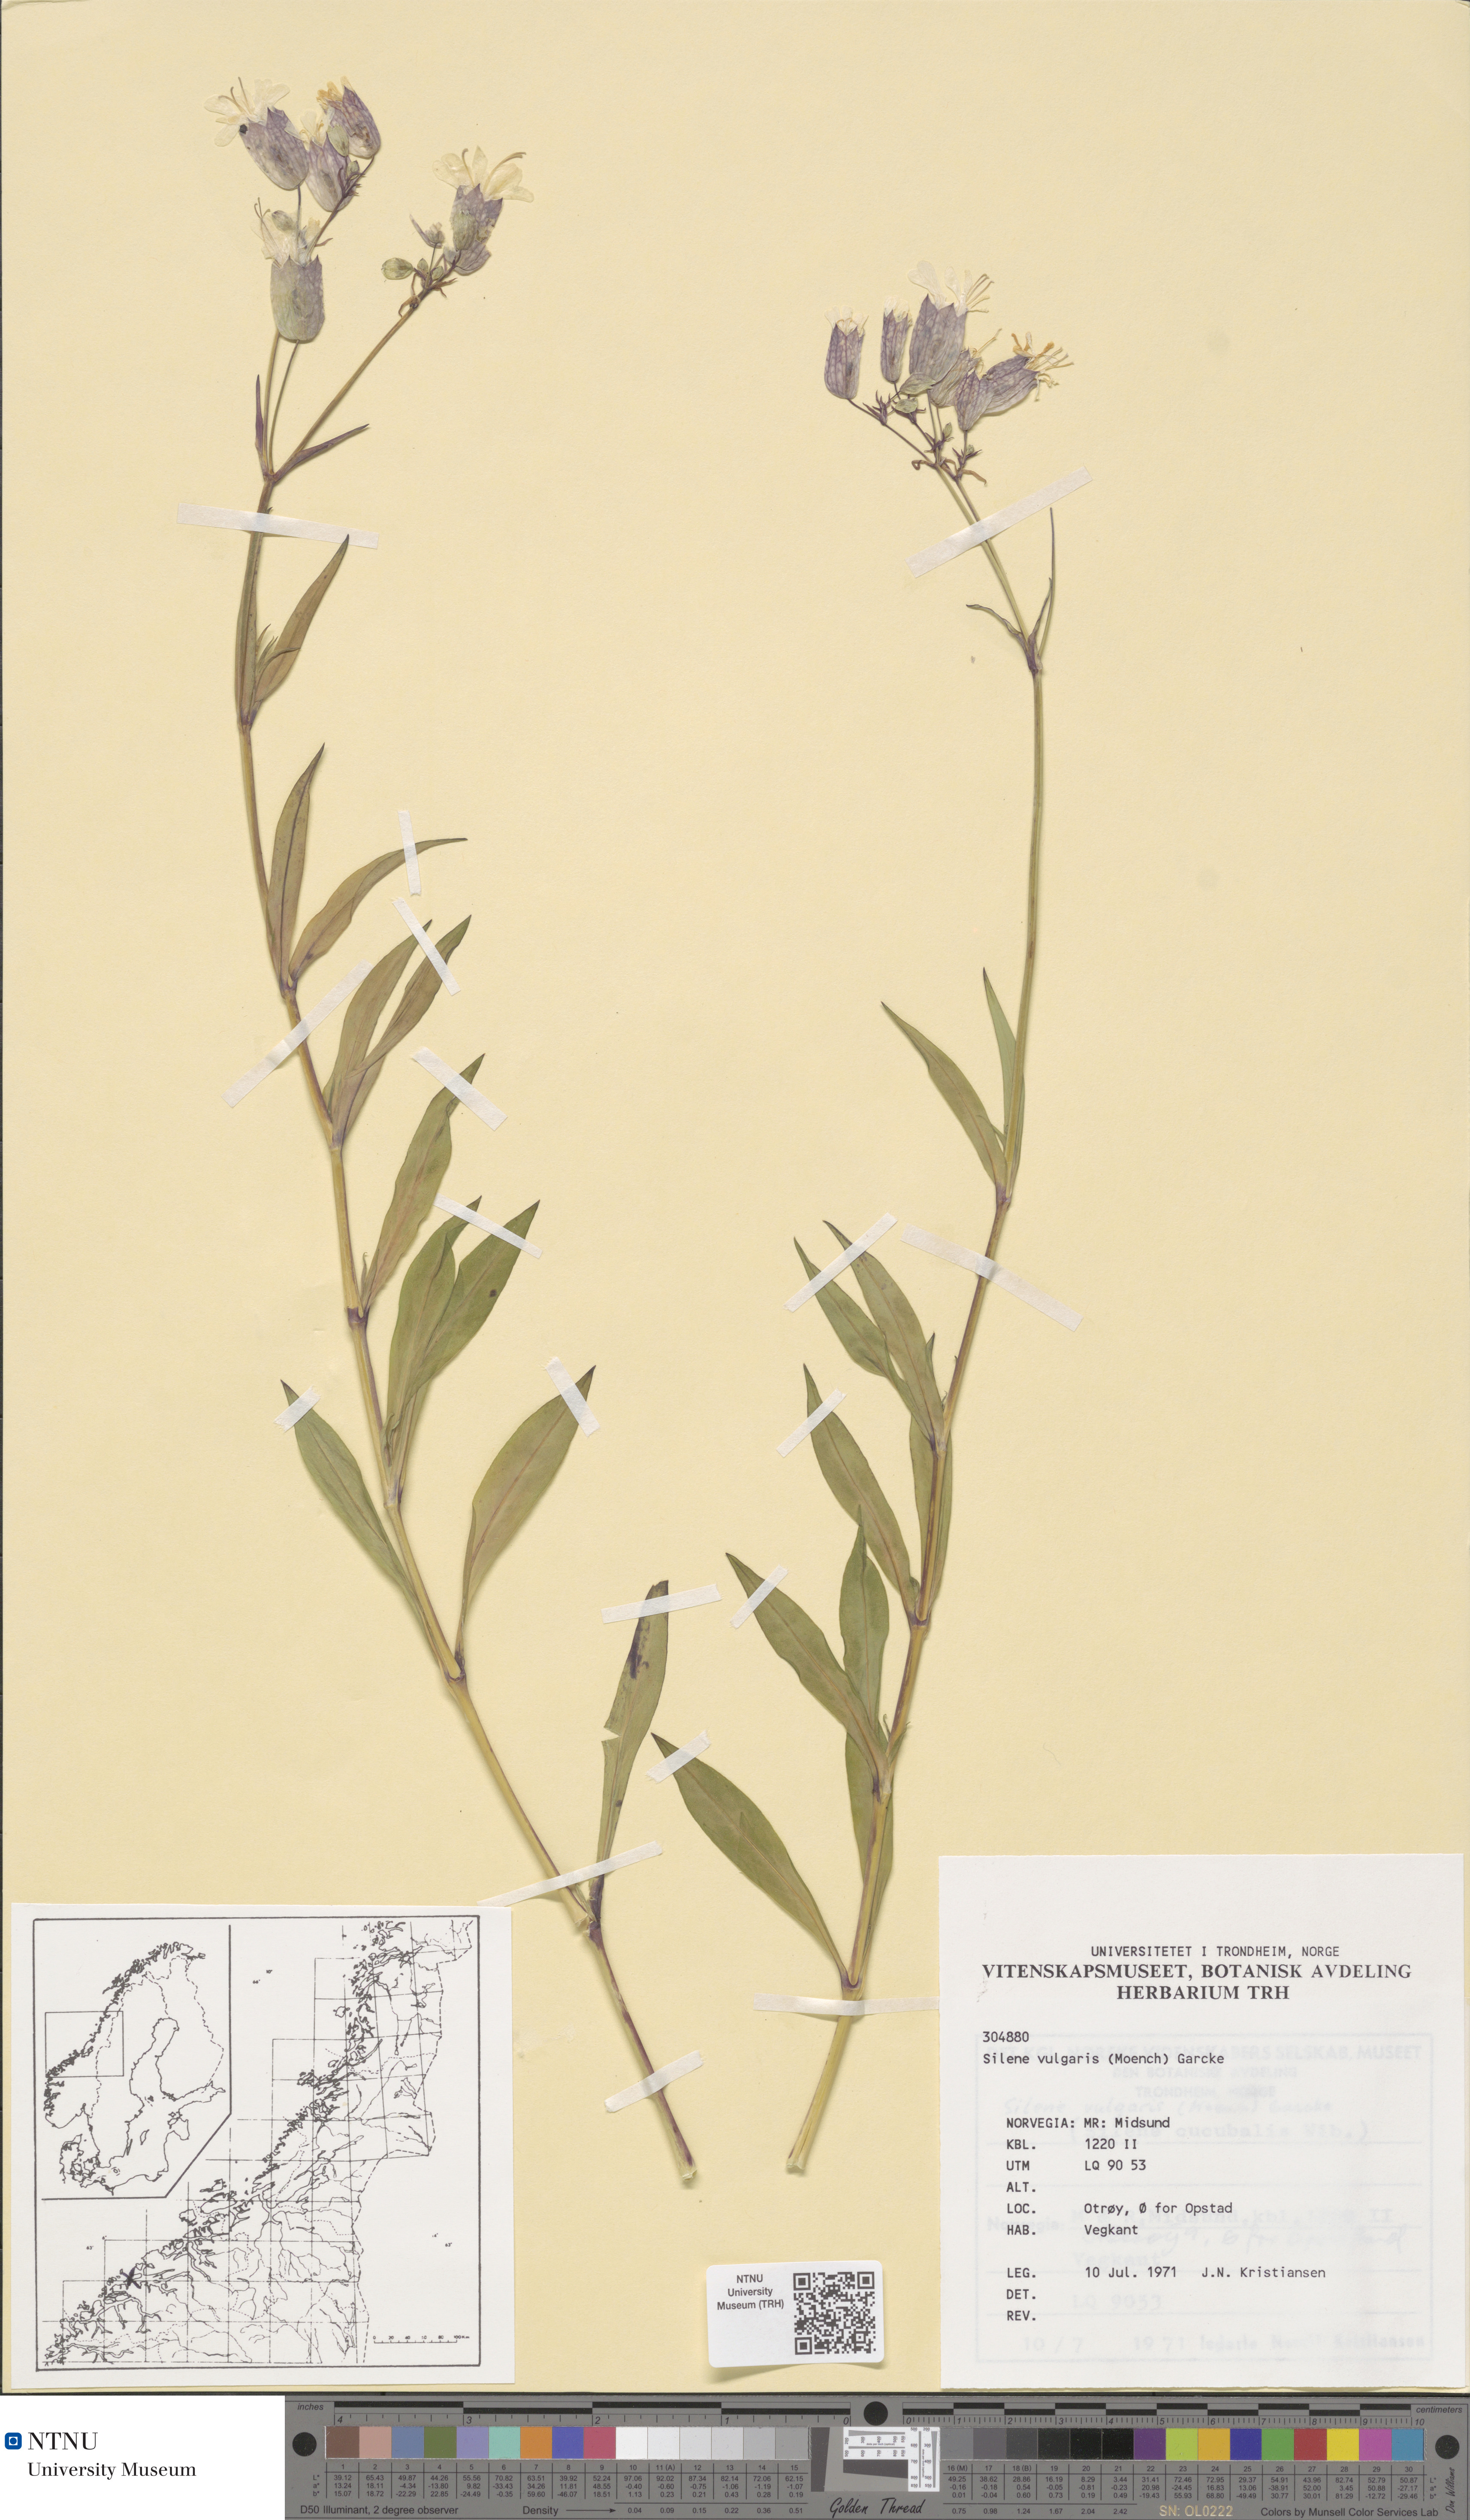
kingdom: Plantae
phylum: Tracheophyta
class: Magnoliopsida
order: Caryophyllales
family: Caryophyllaceae
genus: Silene
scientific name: Silene vulgaris
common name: Bladder campion
